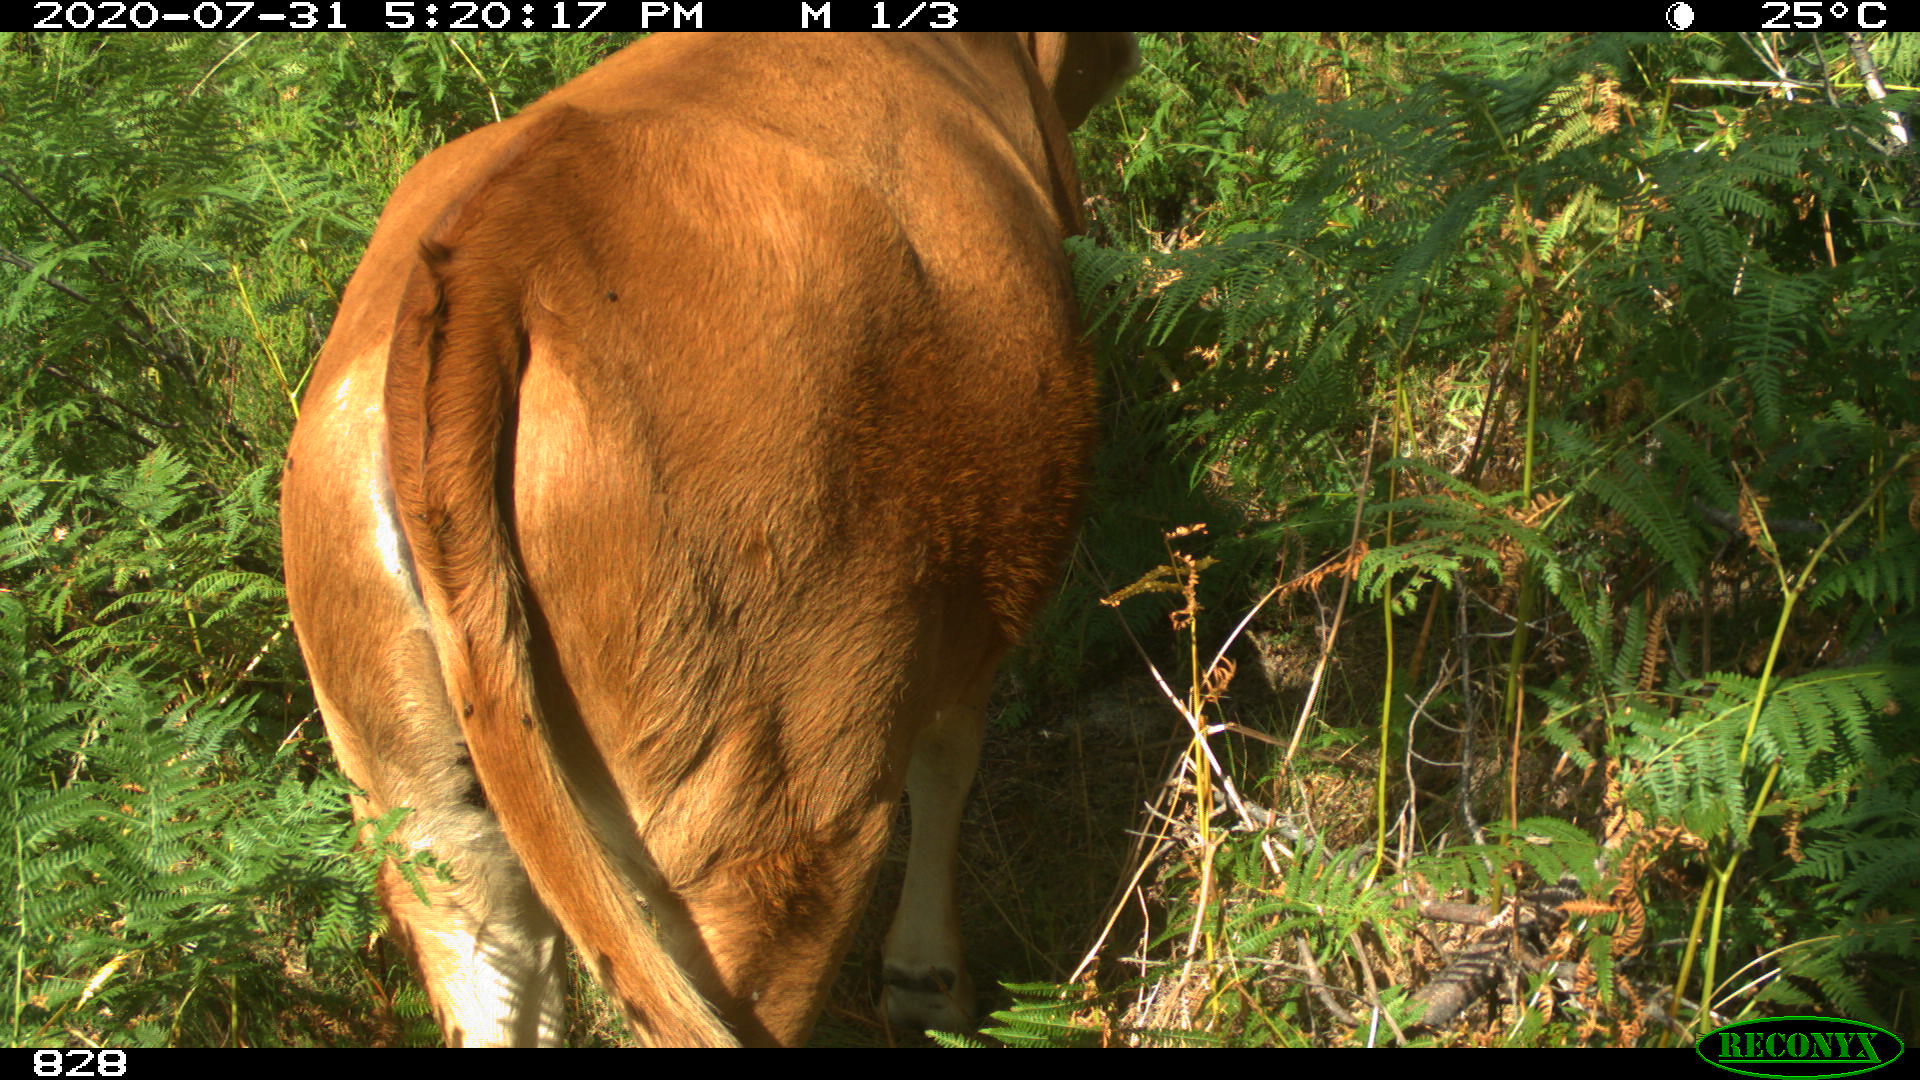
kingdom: Animalia
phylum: Chordata
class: Mammalia
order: Artiodactyla
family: Bovidae
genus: Bos
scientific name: Bos taurus
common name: Domesticated cattle
